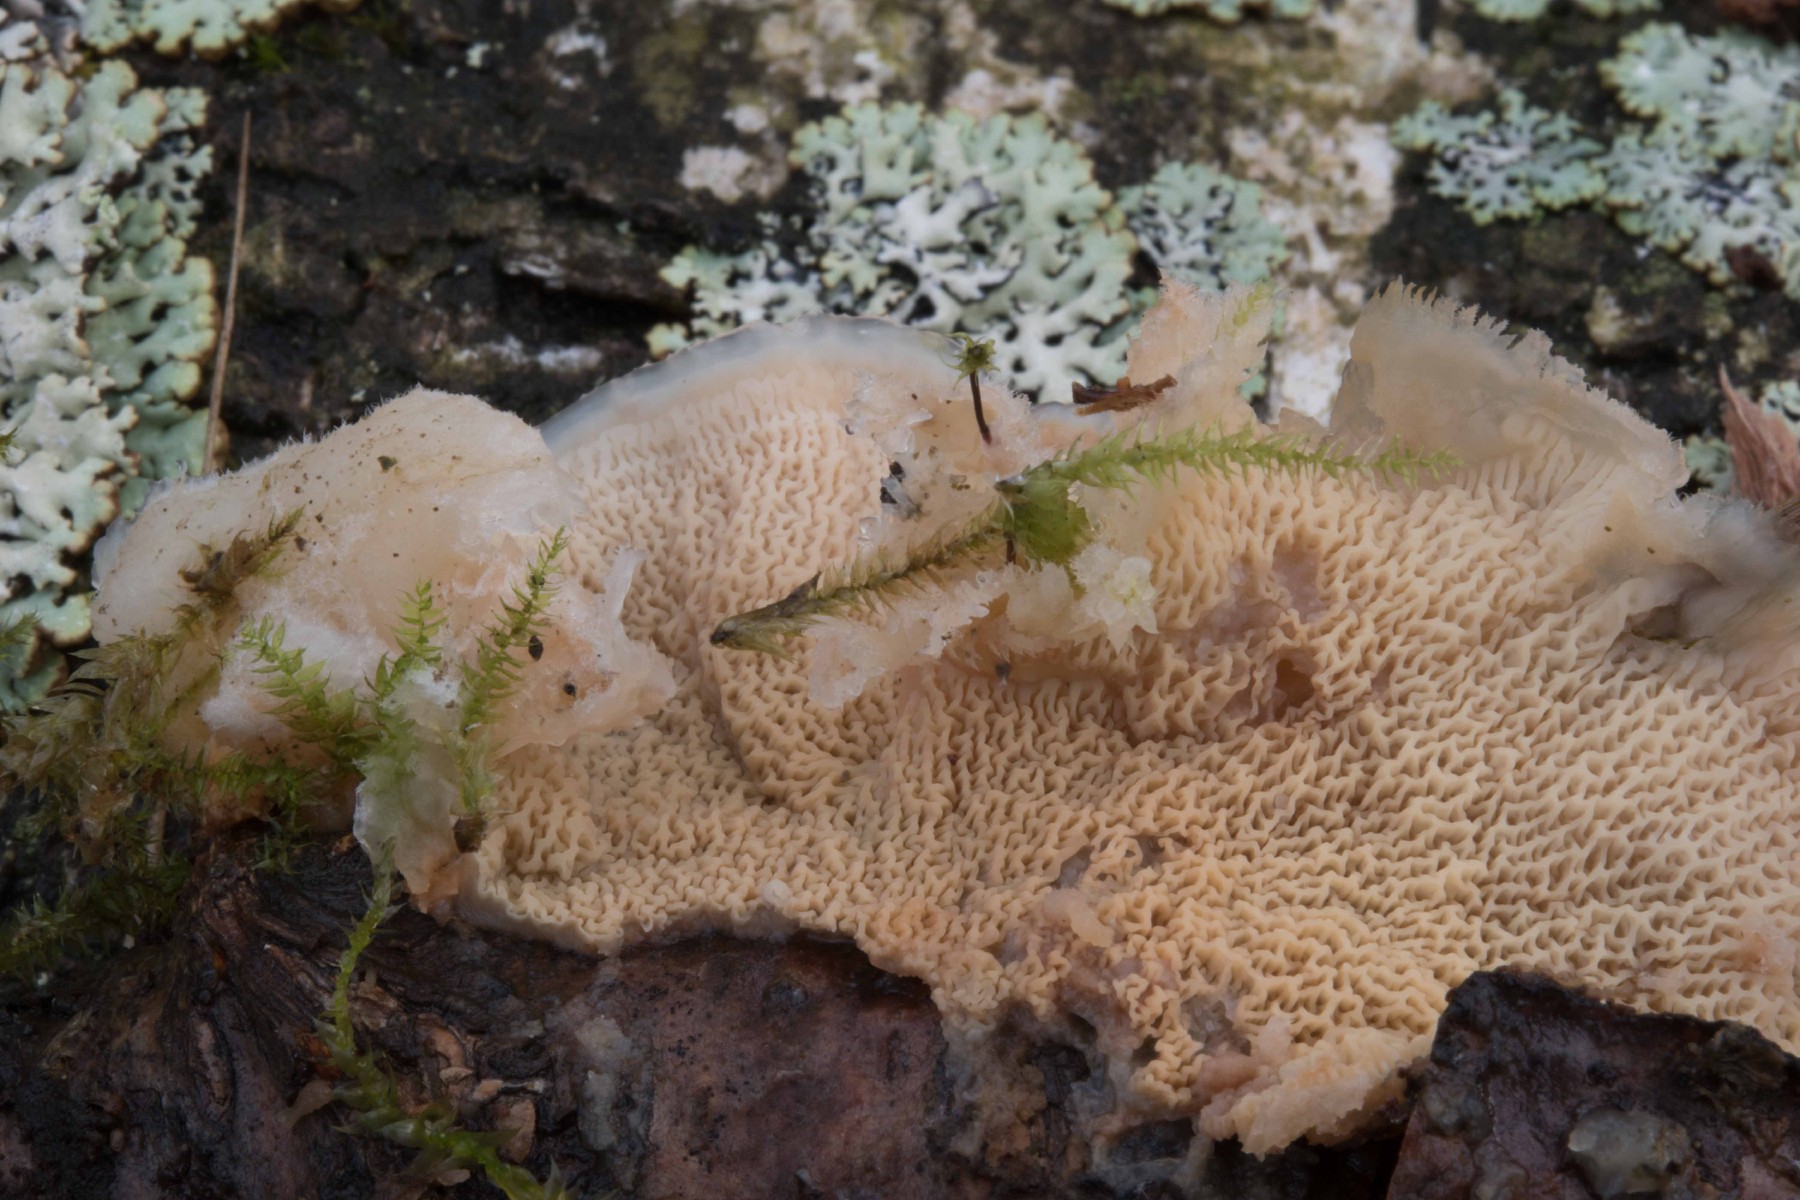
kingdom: Fungi
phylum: Basidiomycota
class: Agaricomycetes
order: Polyporales
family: Meruliaceae
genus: Phlebia
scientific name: Phlebia tremellosa
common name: bævrende åresvamp
